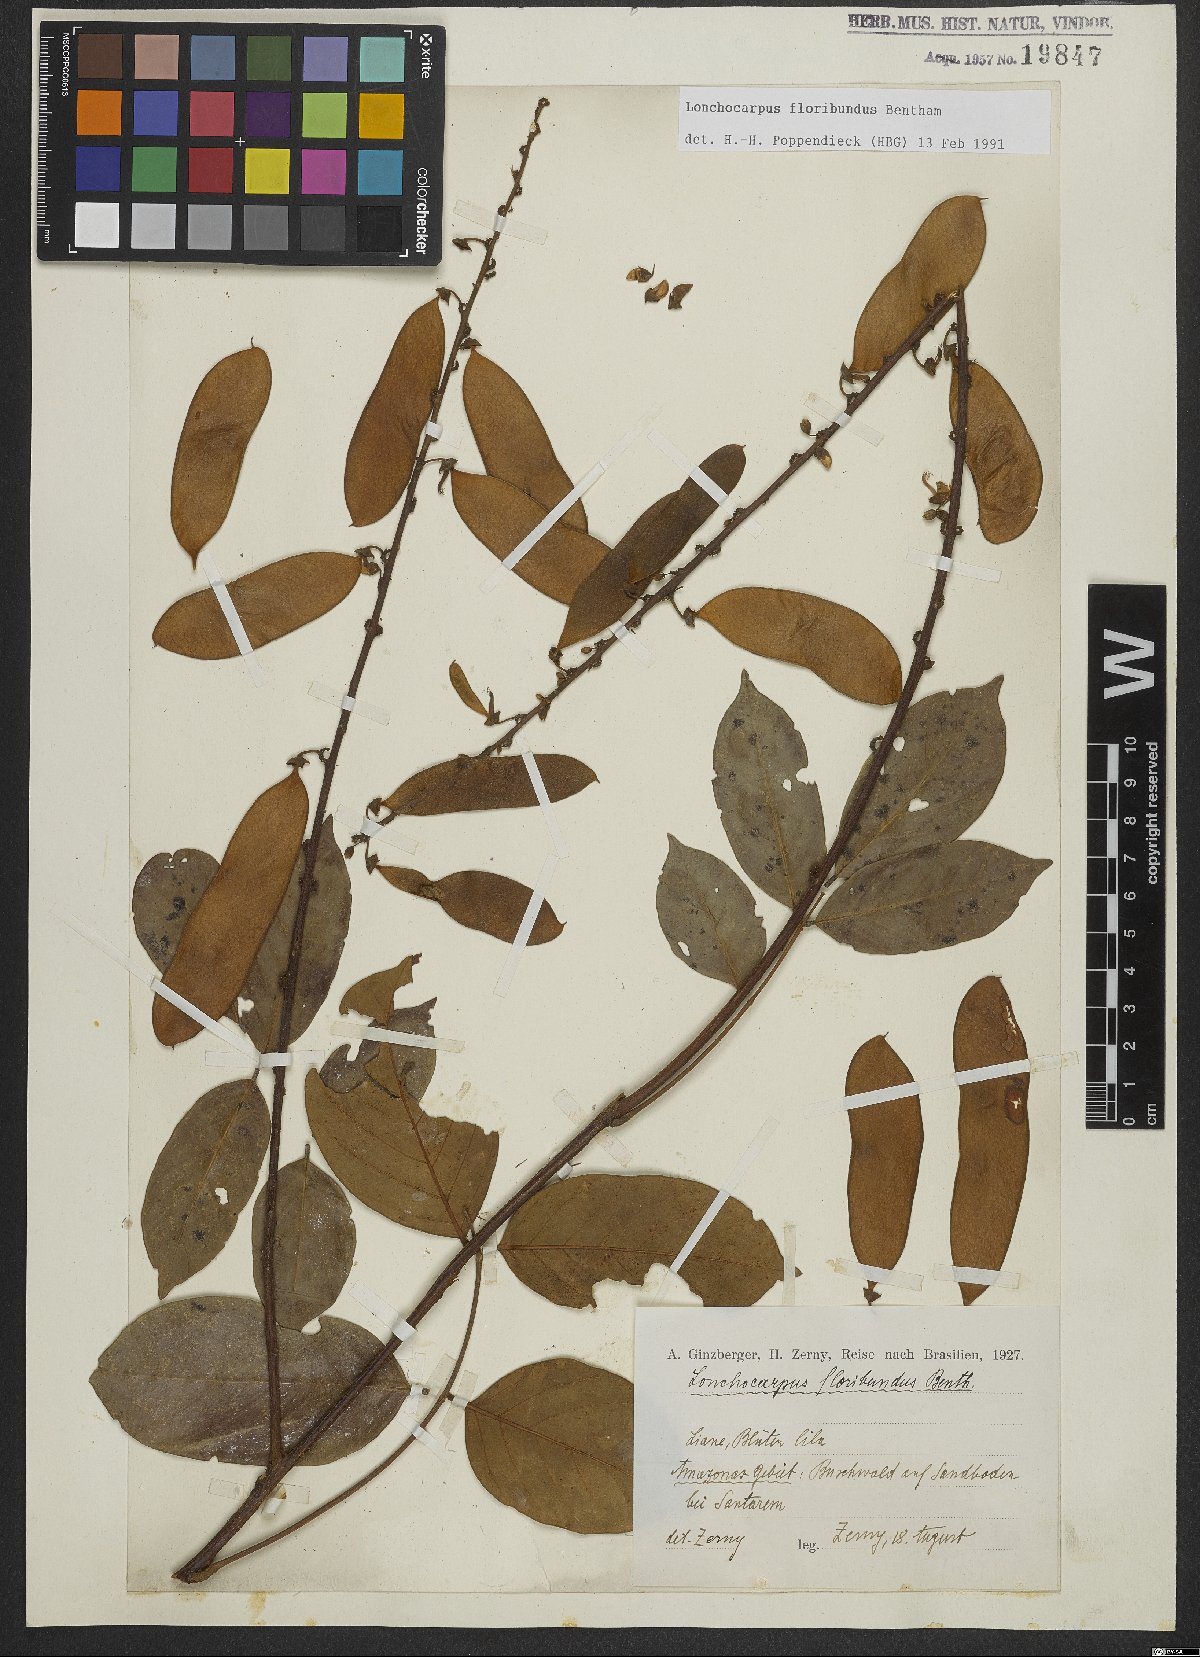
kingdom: Plantae
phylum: Tracheophyta
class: Magnoliopsida
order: Fabales
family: Fabaceae
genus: Deguelia
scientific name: Deguelia nitidula
